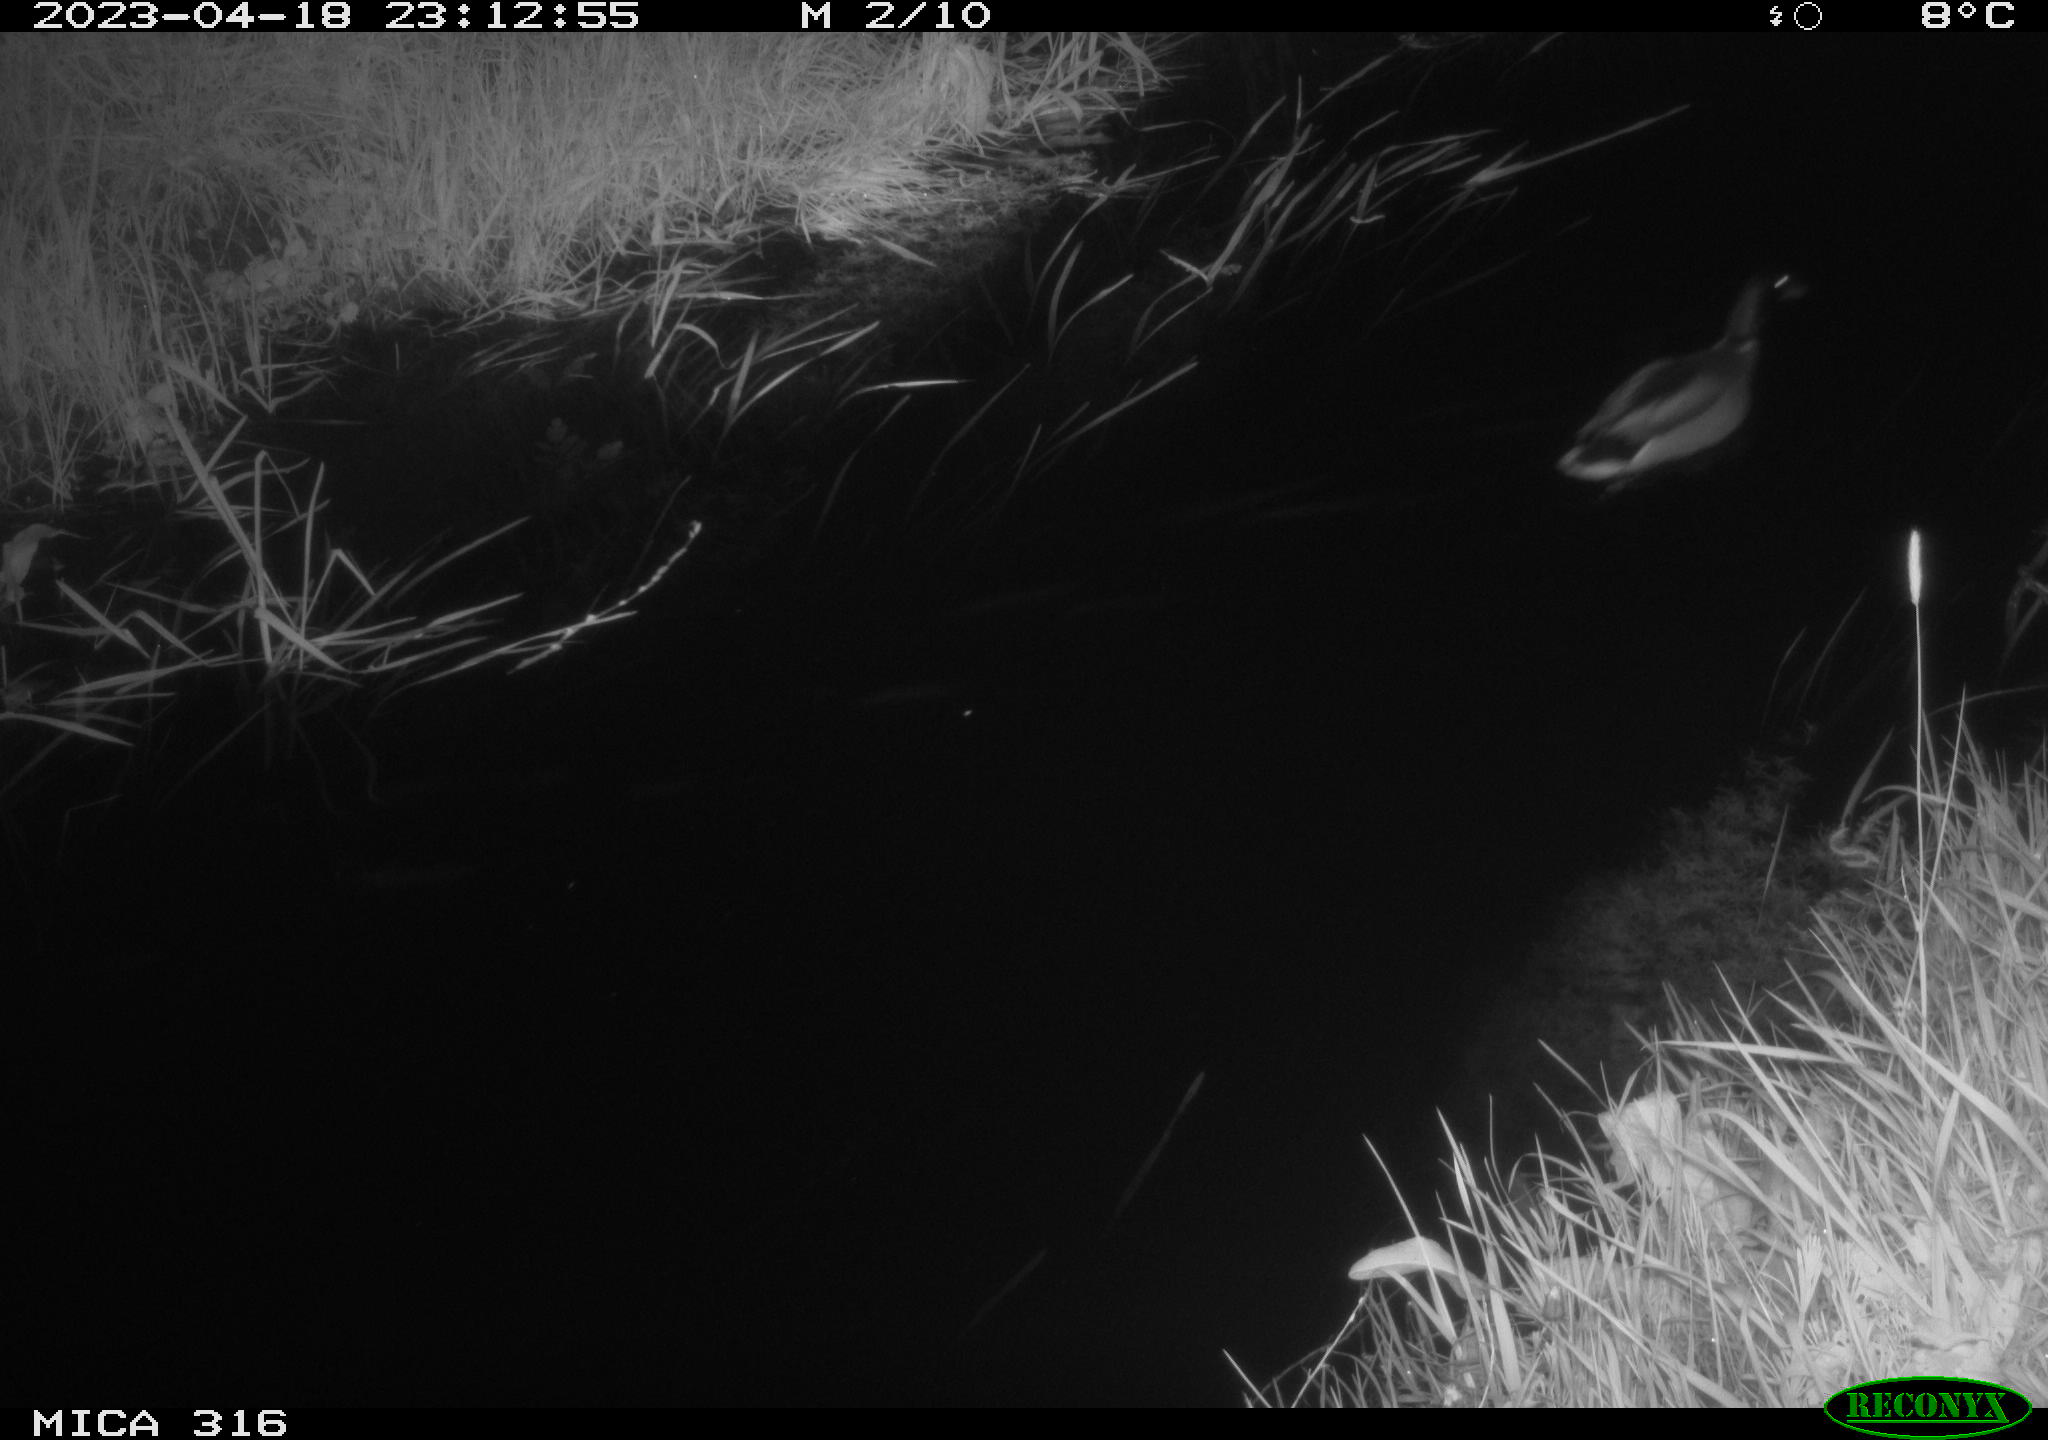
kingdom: Animalia
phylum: Chordata
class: Aves
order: Anseriformes
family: Anatidae
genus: Anas
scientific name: Anas
